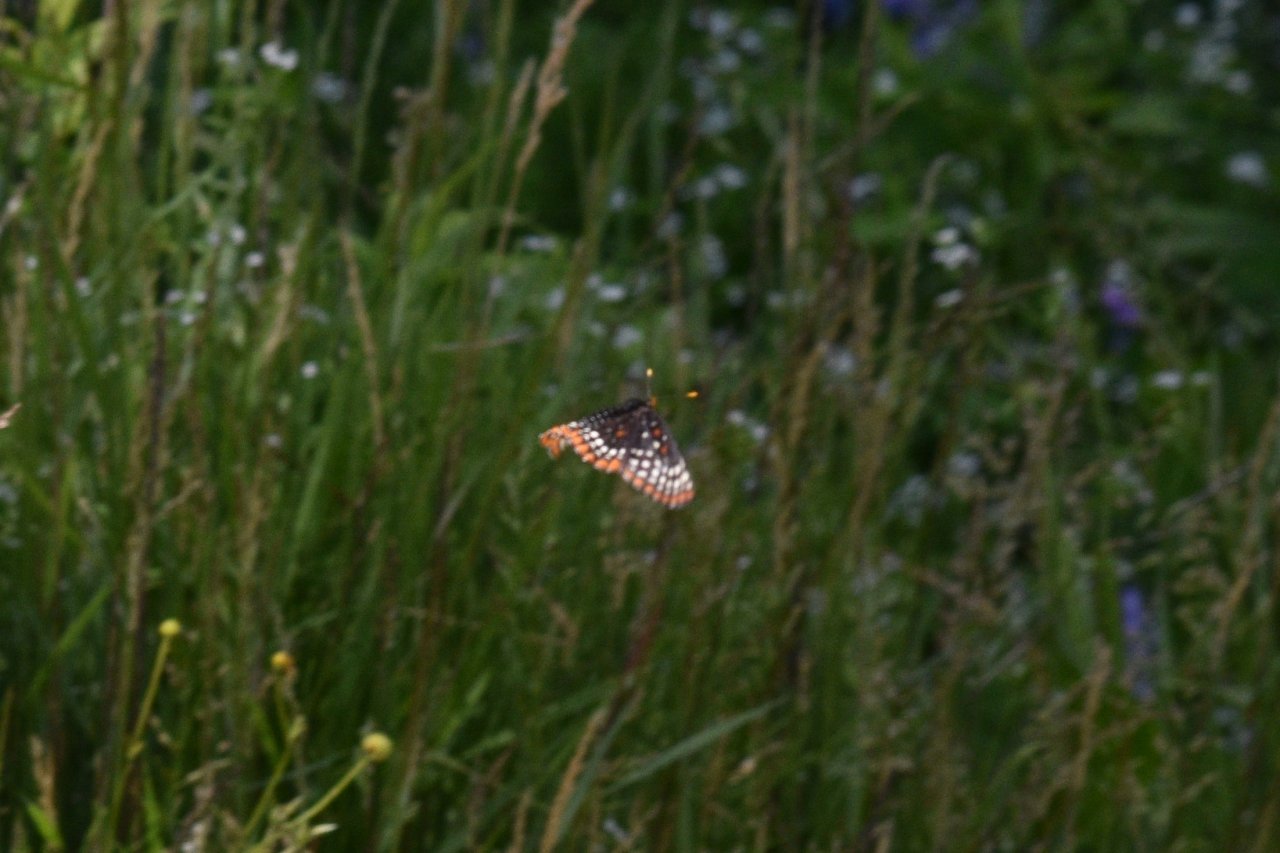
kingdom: Animalia
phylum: Arthropoda
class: Insecta
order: Lepidoptera
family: Nymphalidae
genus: Euphydryas
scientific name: Euphydryas phaeton
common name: Baltimore Checkerspot
